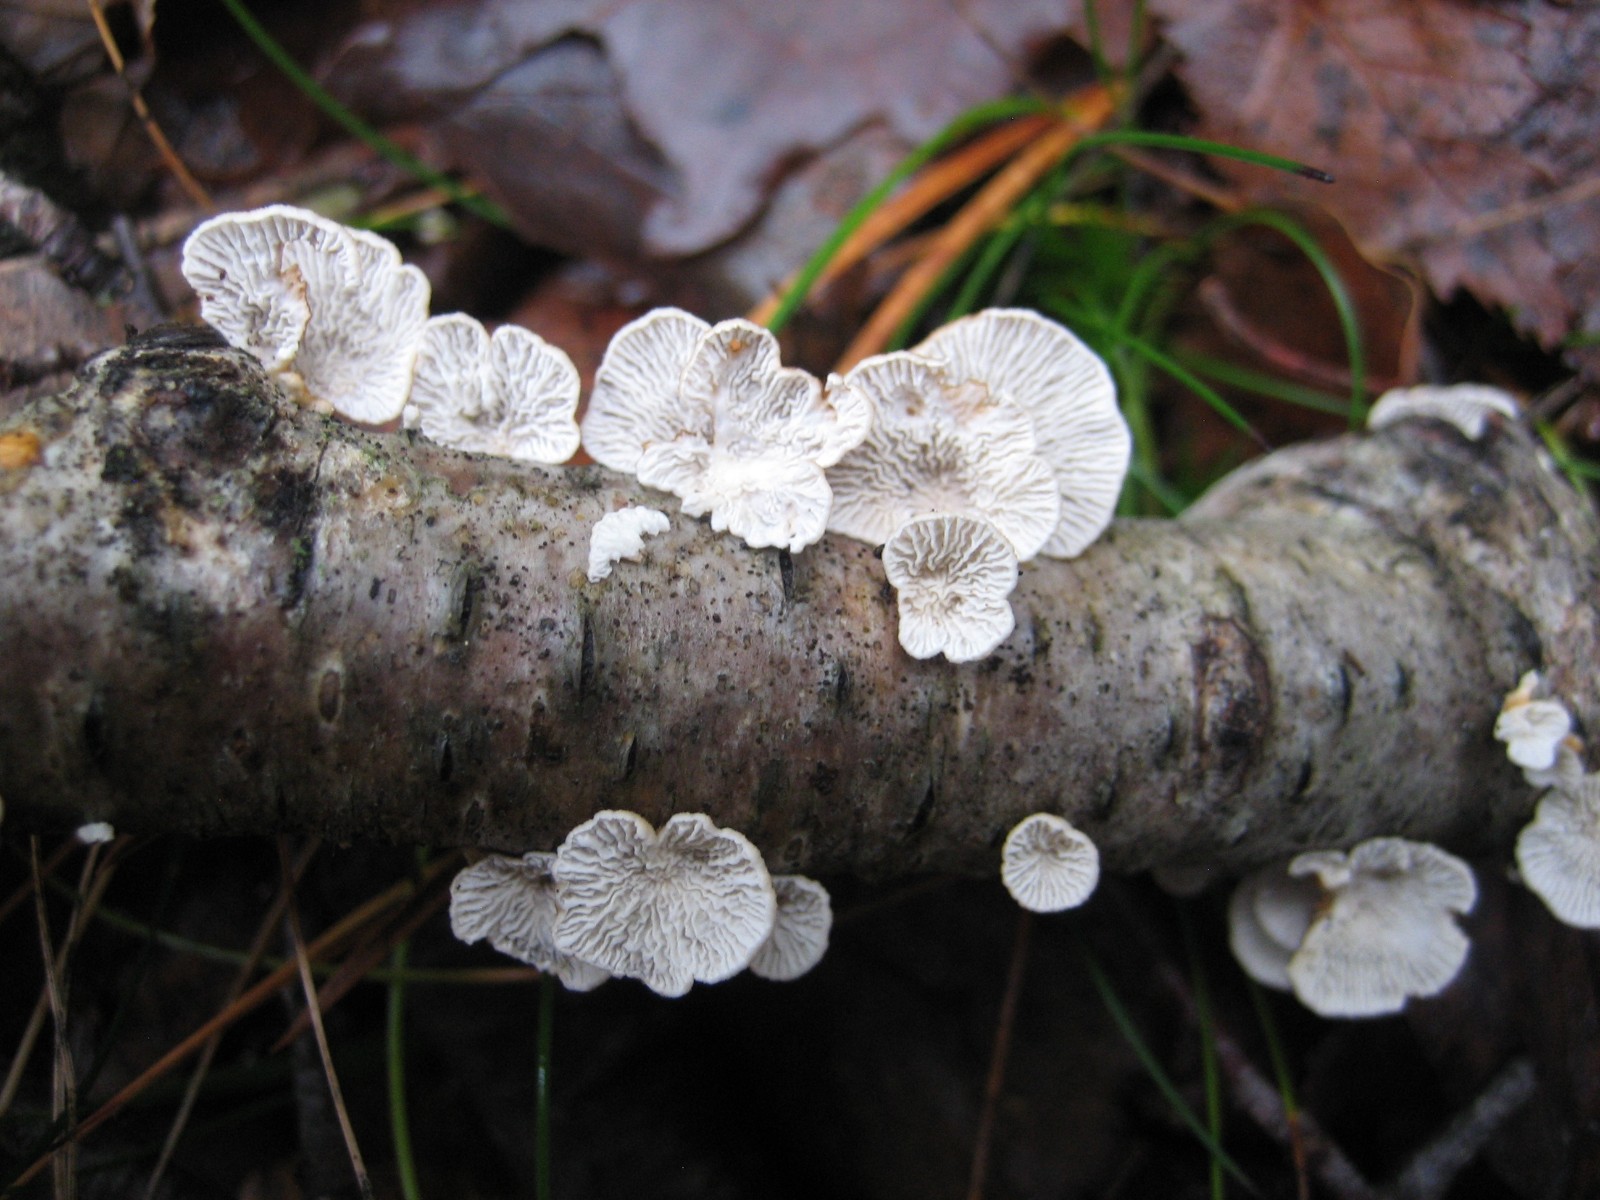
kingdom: Fungi
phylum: Basidiomycota
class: Agaricomycetes
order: Amylocorticiales
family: Amylocorticiaceae
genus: Plicaturopsis
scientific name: Plicaturopsis crispa
